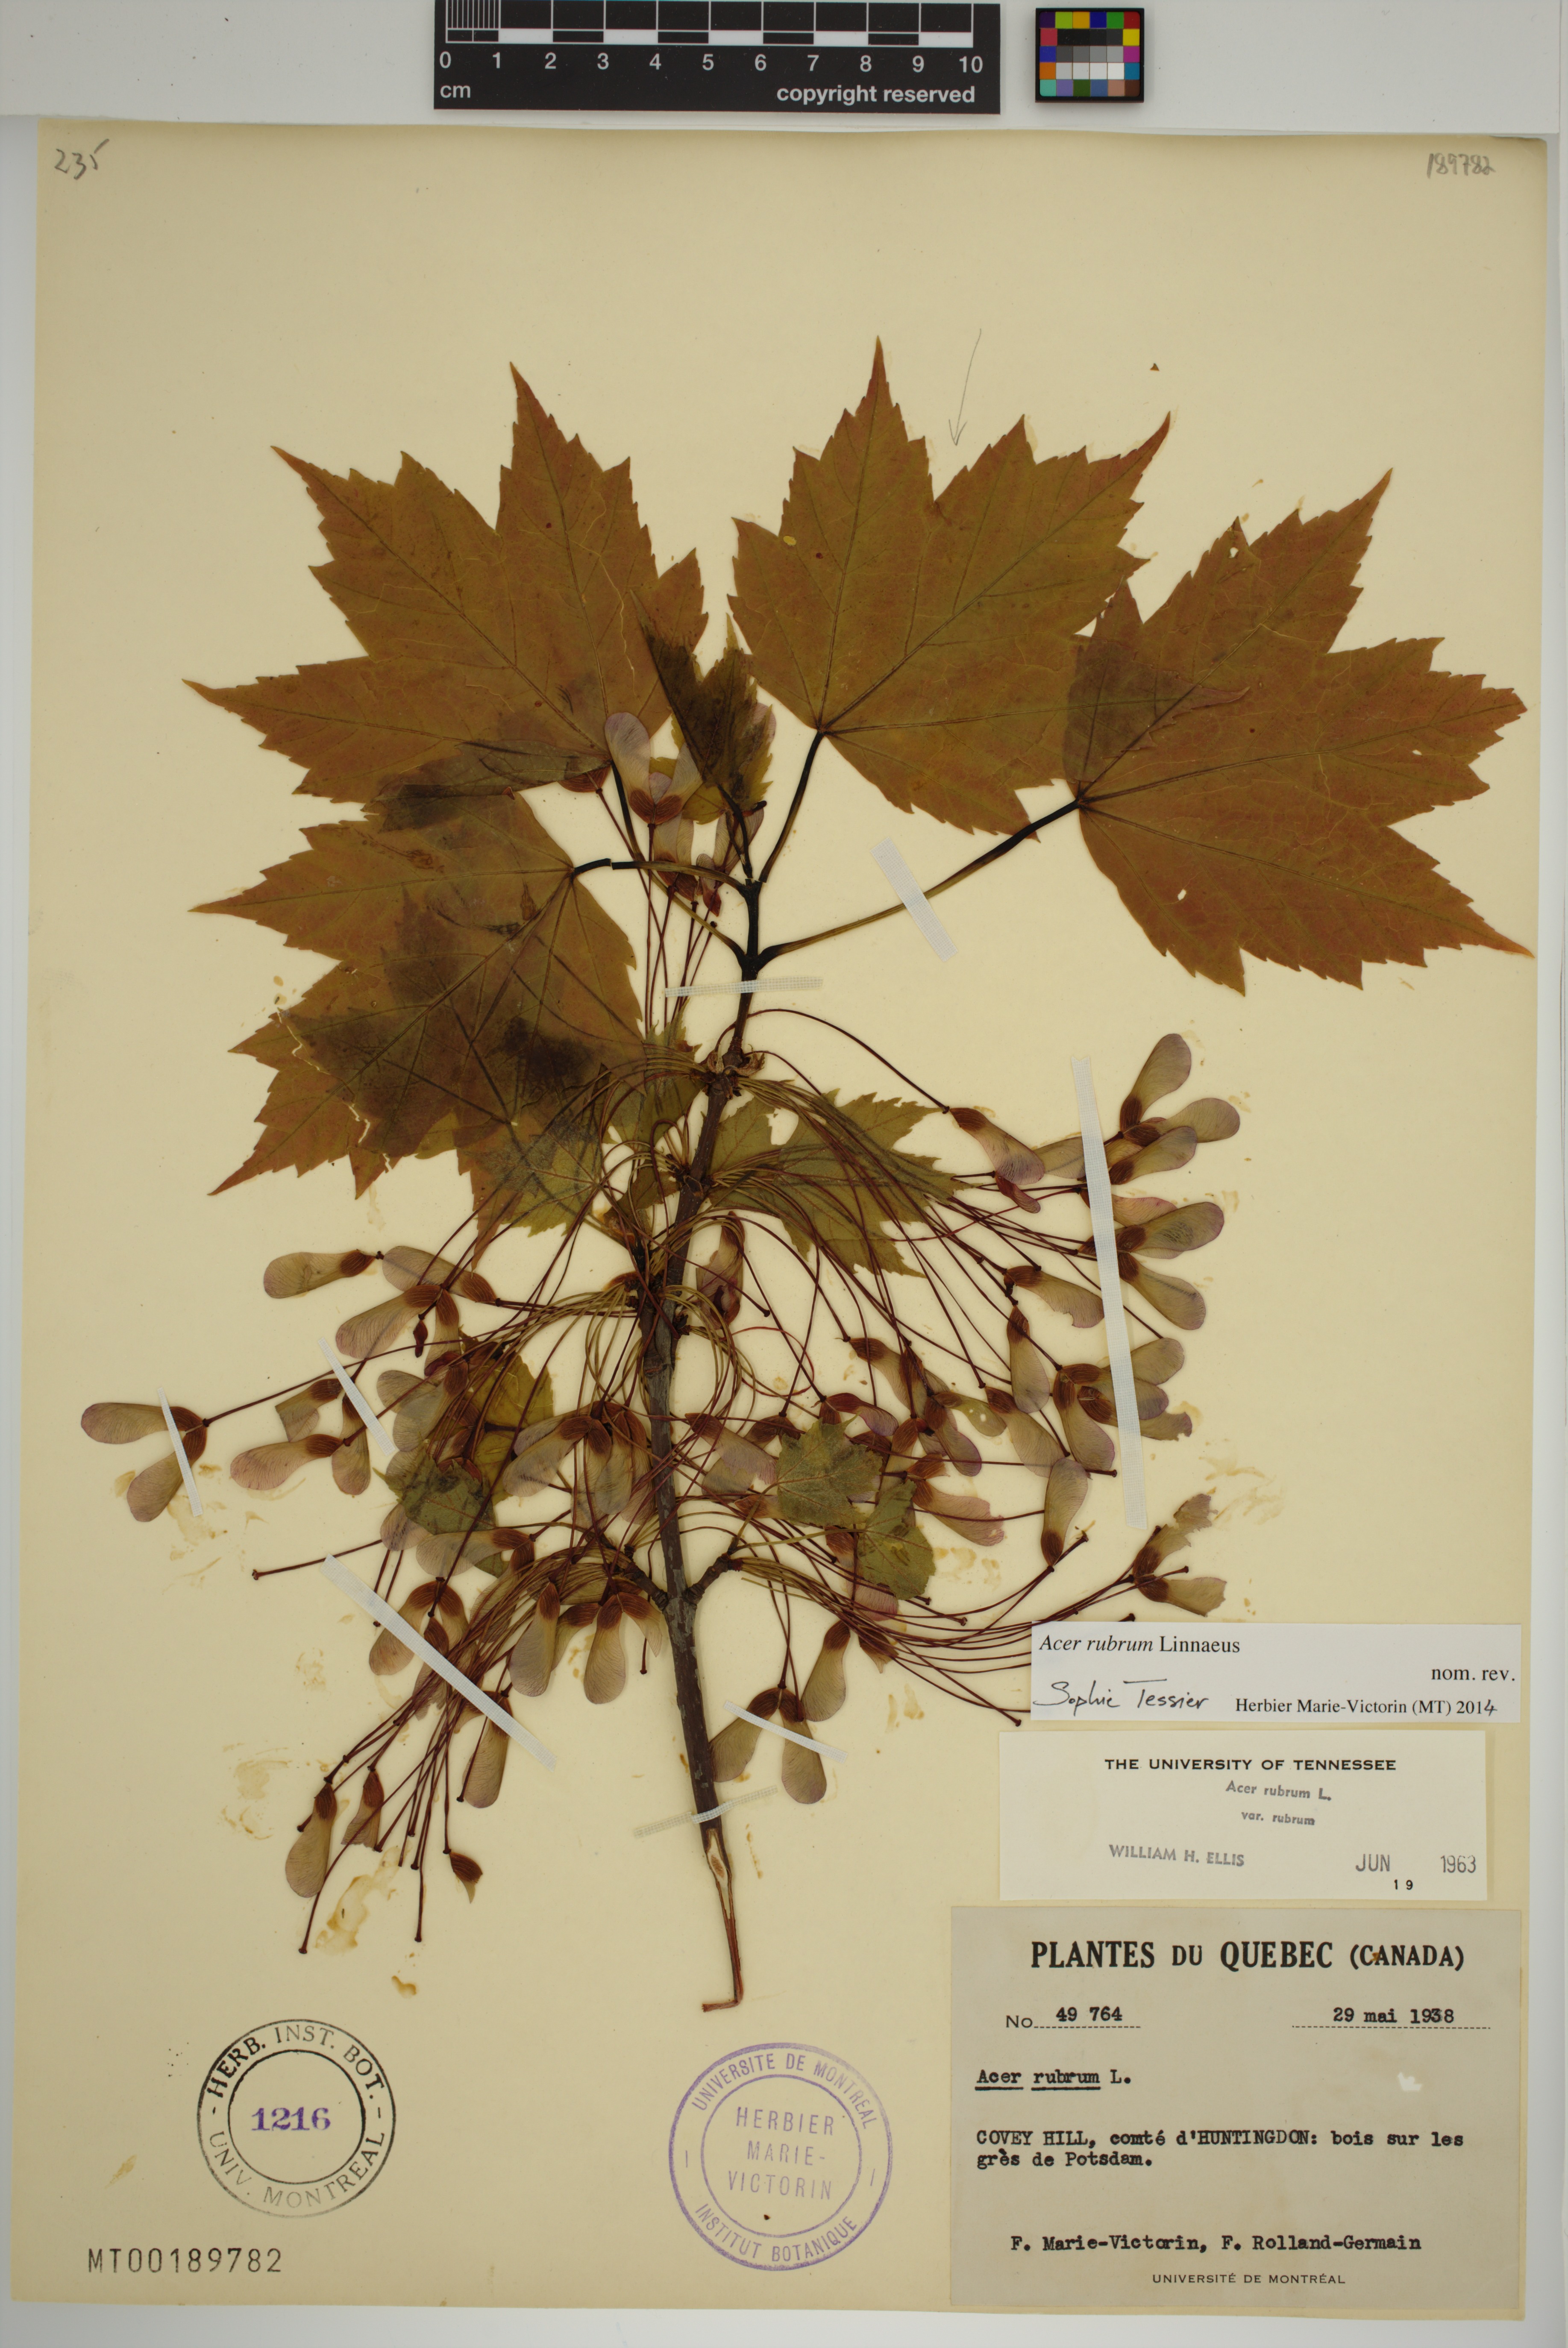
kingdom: Plantae
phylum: Tracheophyta
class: Magnoliopsida
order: Sapindales
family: Sapindaceae
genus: Acer
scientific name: Acer rubrum
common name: Red maple
